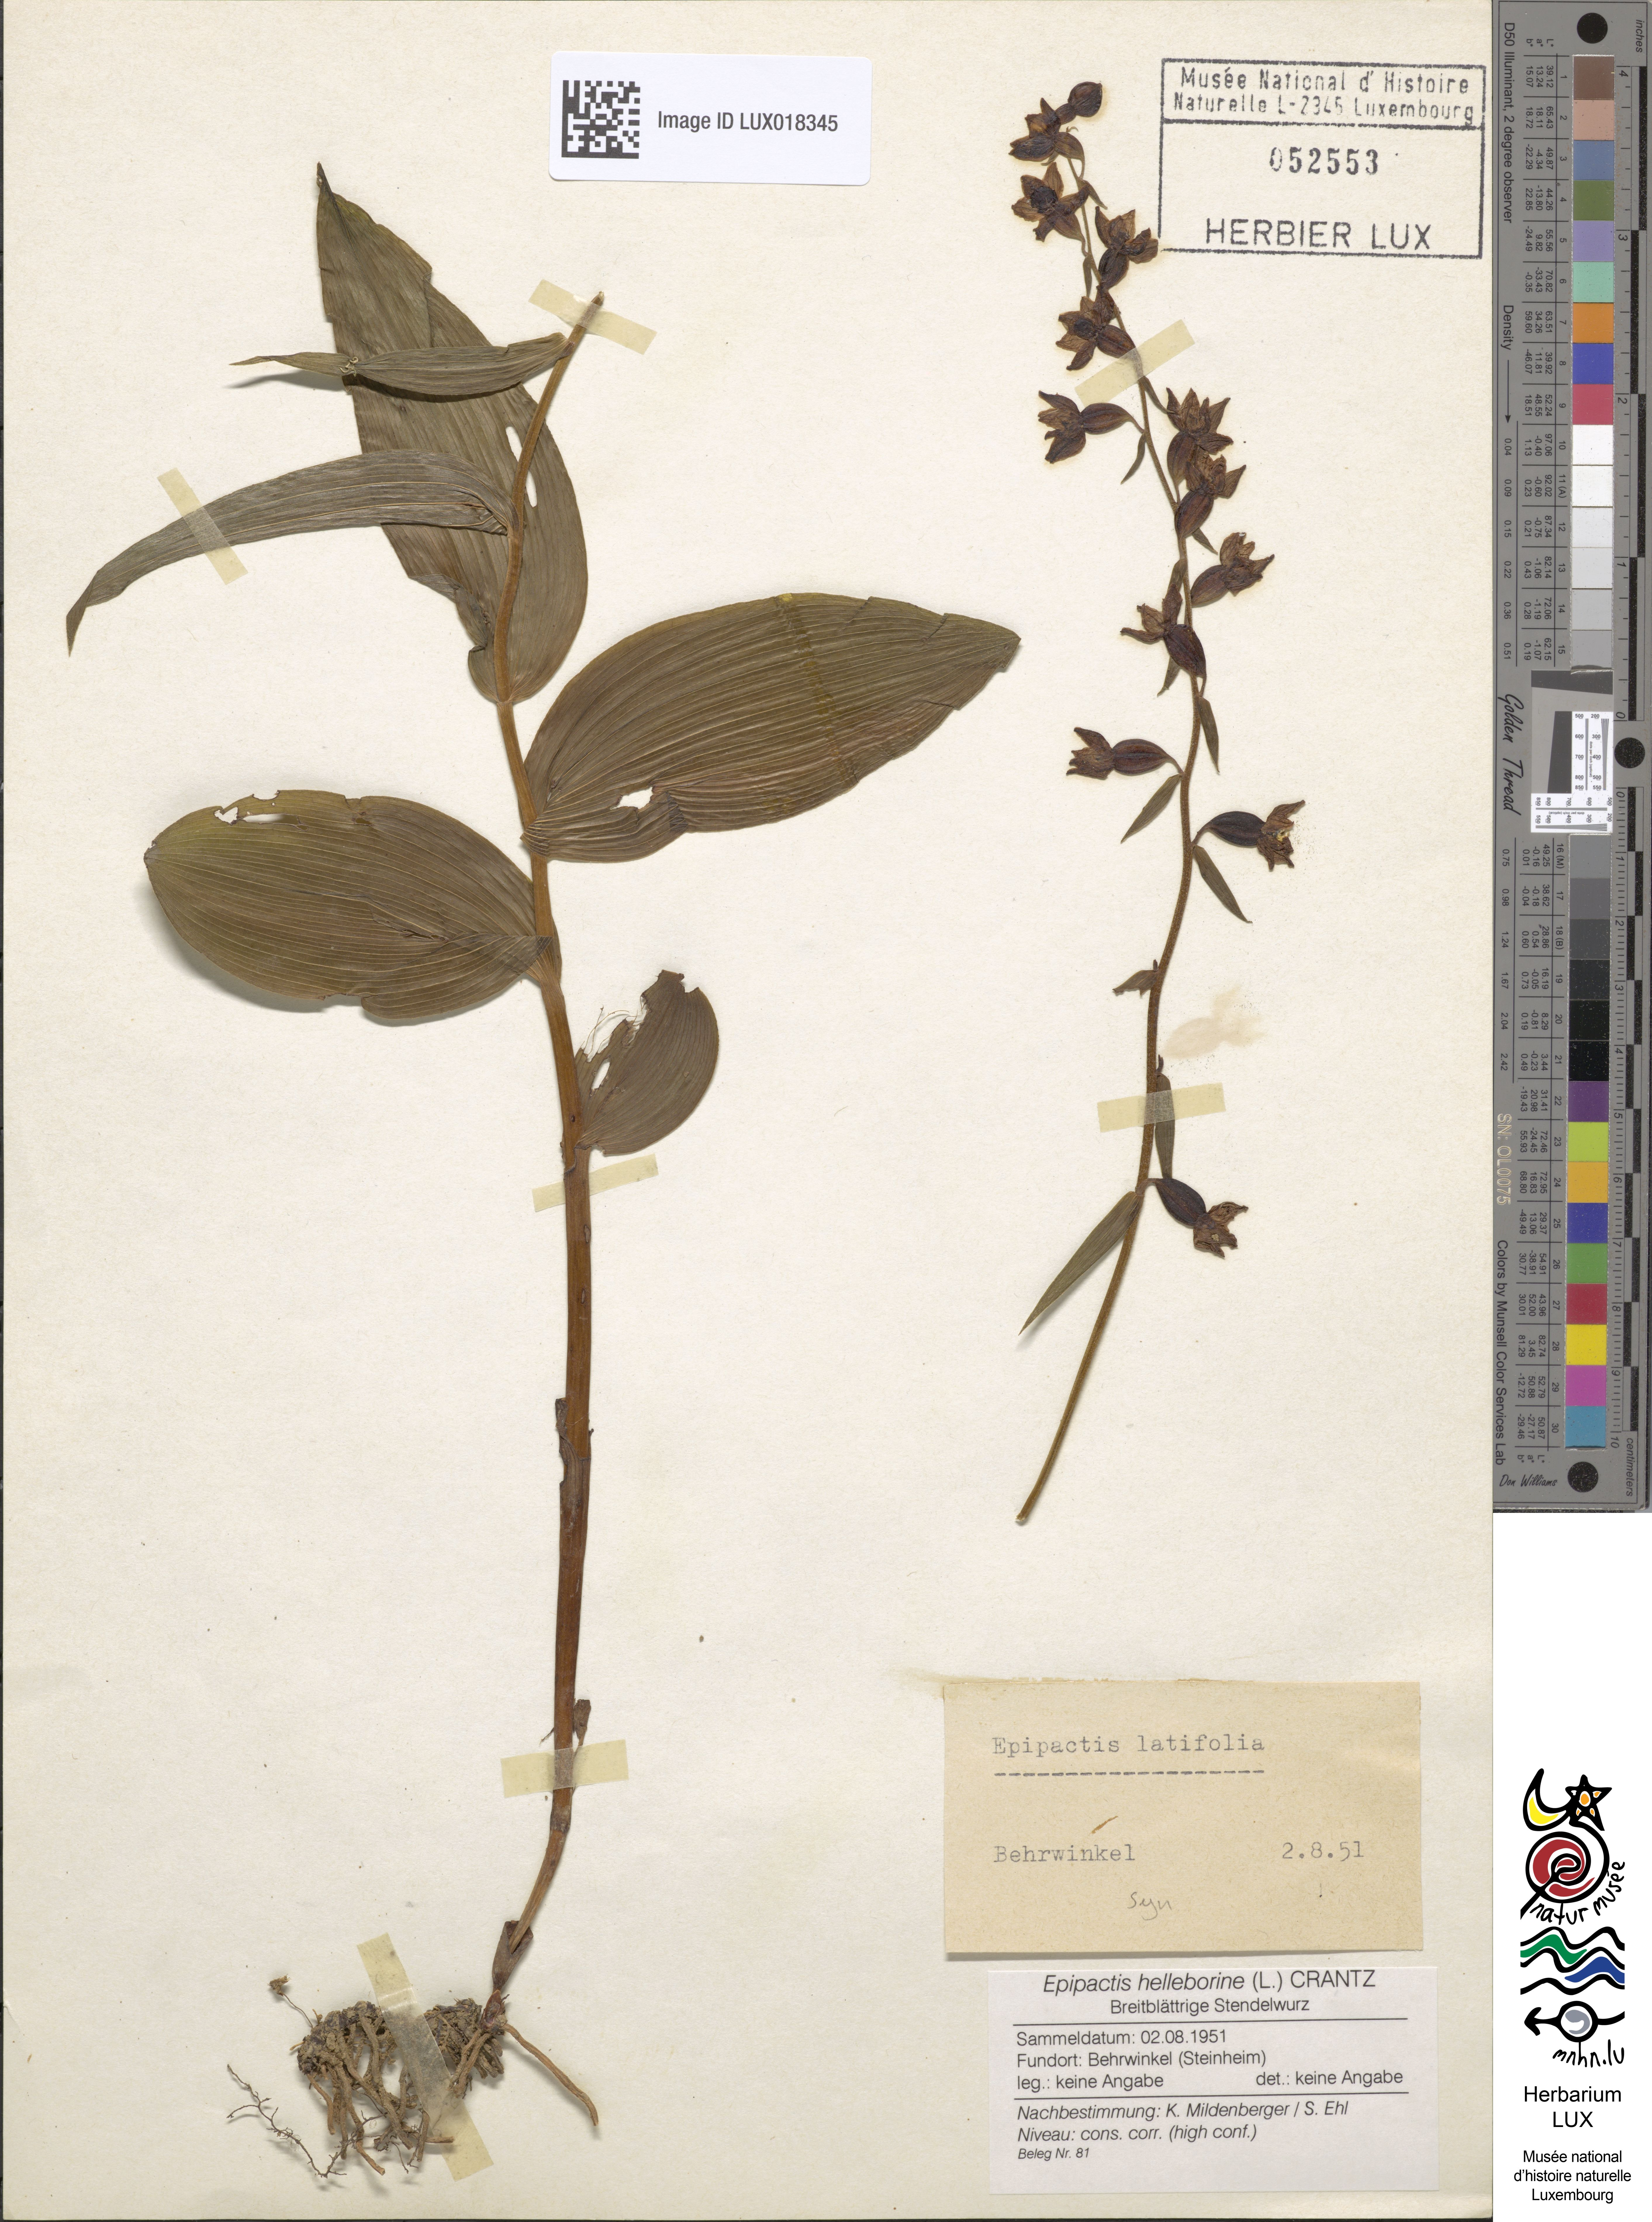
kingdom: Plantae
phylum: Tracheophyta
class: Liliopsida
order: Asparagales
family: Orchidaceae
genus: Epipactis
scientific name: Epipactis helleborine
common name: Broad-leaved helleborine
